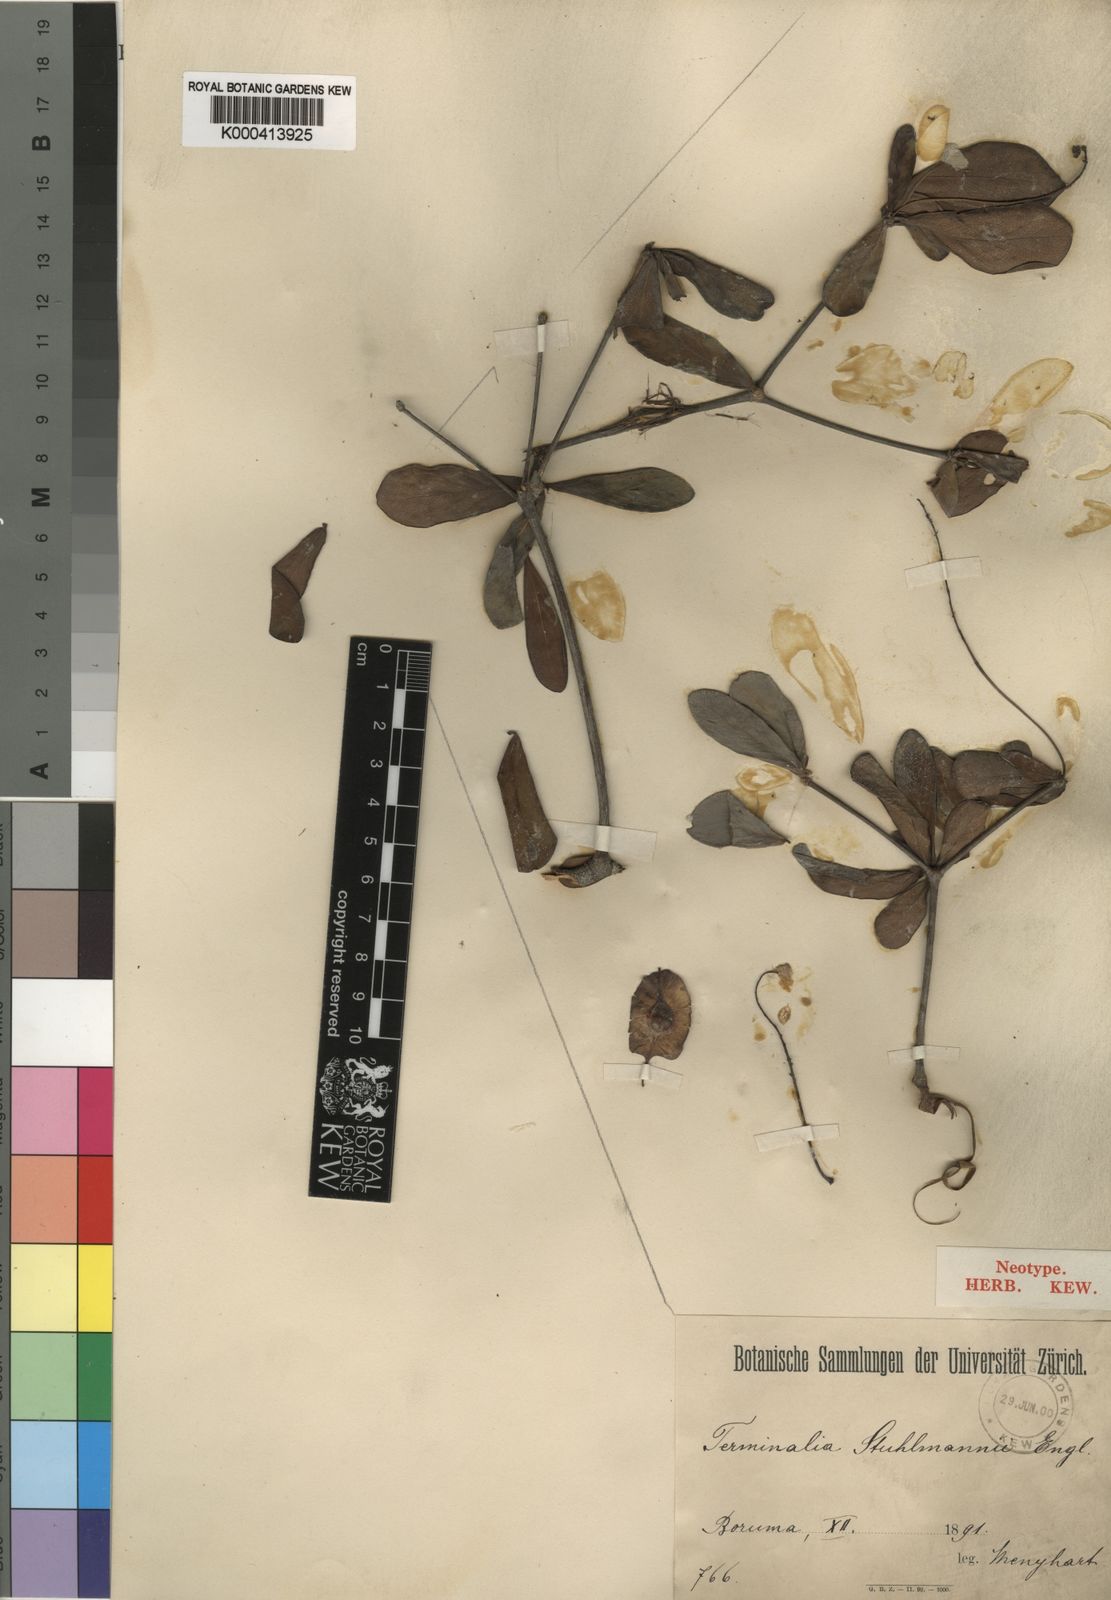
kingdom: Plantae
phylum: Tracheophyta
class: Magnoliopsida
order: Myrtales
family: Combretaceae
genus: Terminalia
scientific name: Terminalia stuhlmannii
